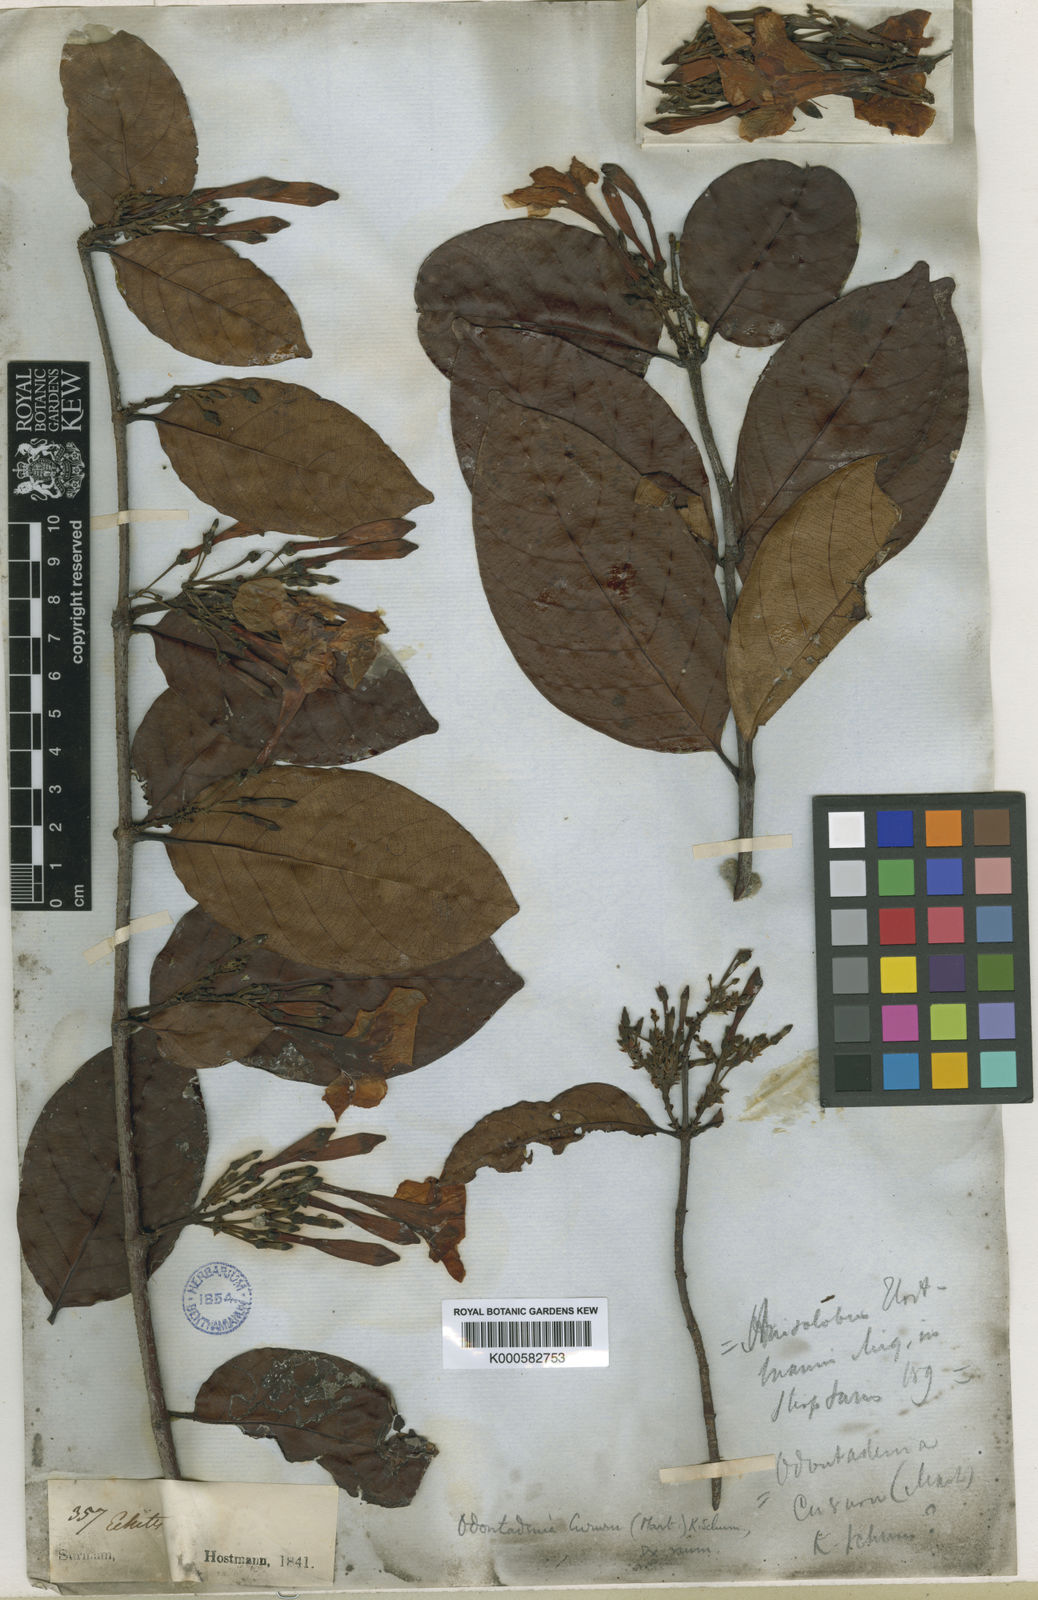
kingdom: Plantae
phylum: Tracheophyta
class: Magnoliopsida
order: Gentianales
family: Apocynaceae
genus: Odontadenia
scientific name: Odontadenia puncticulosa
